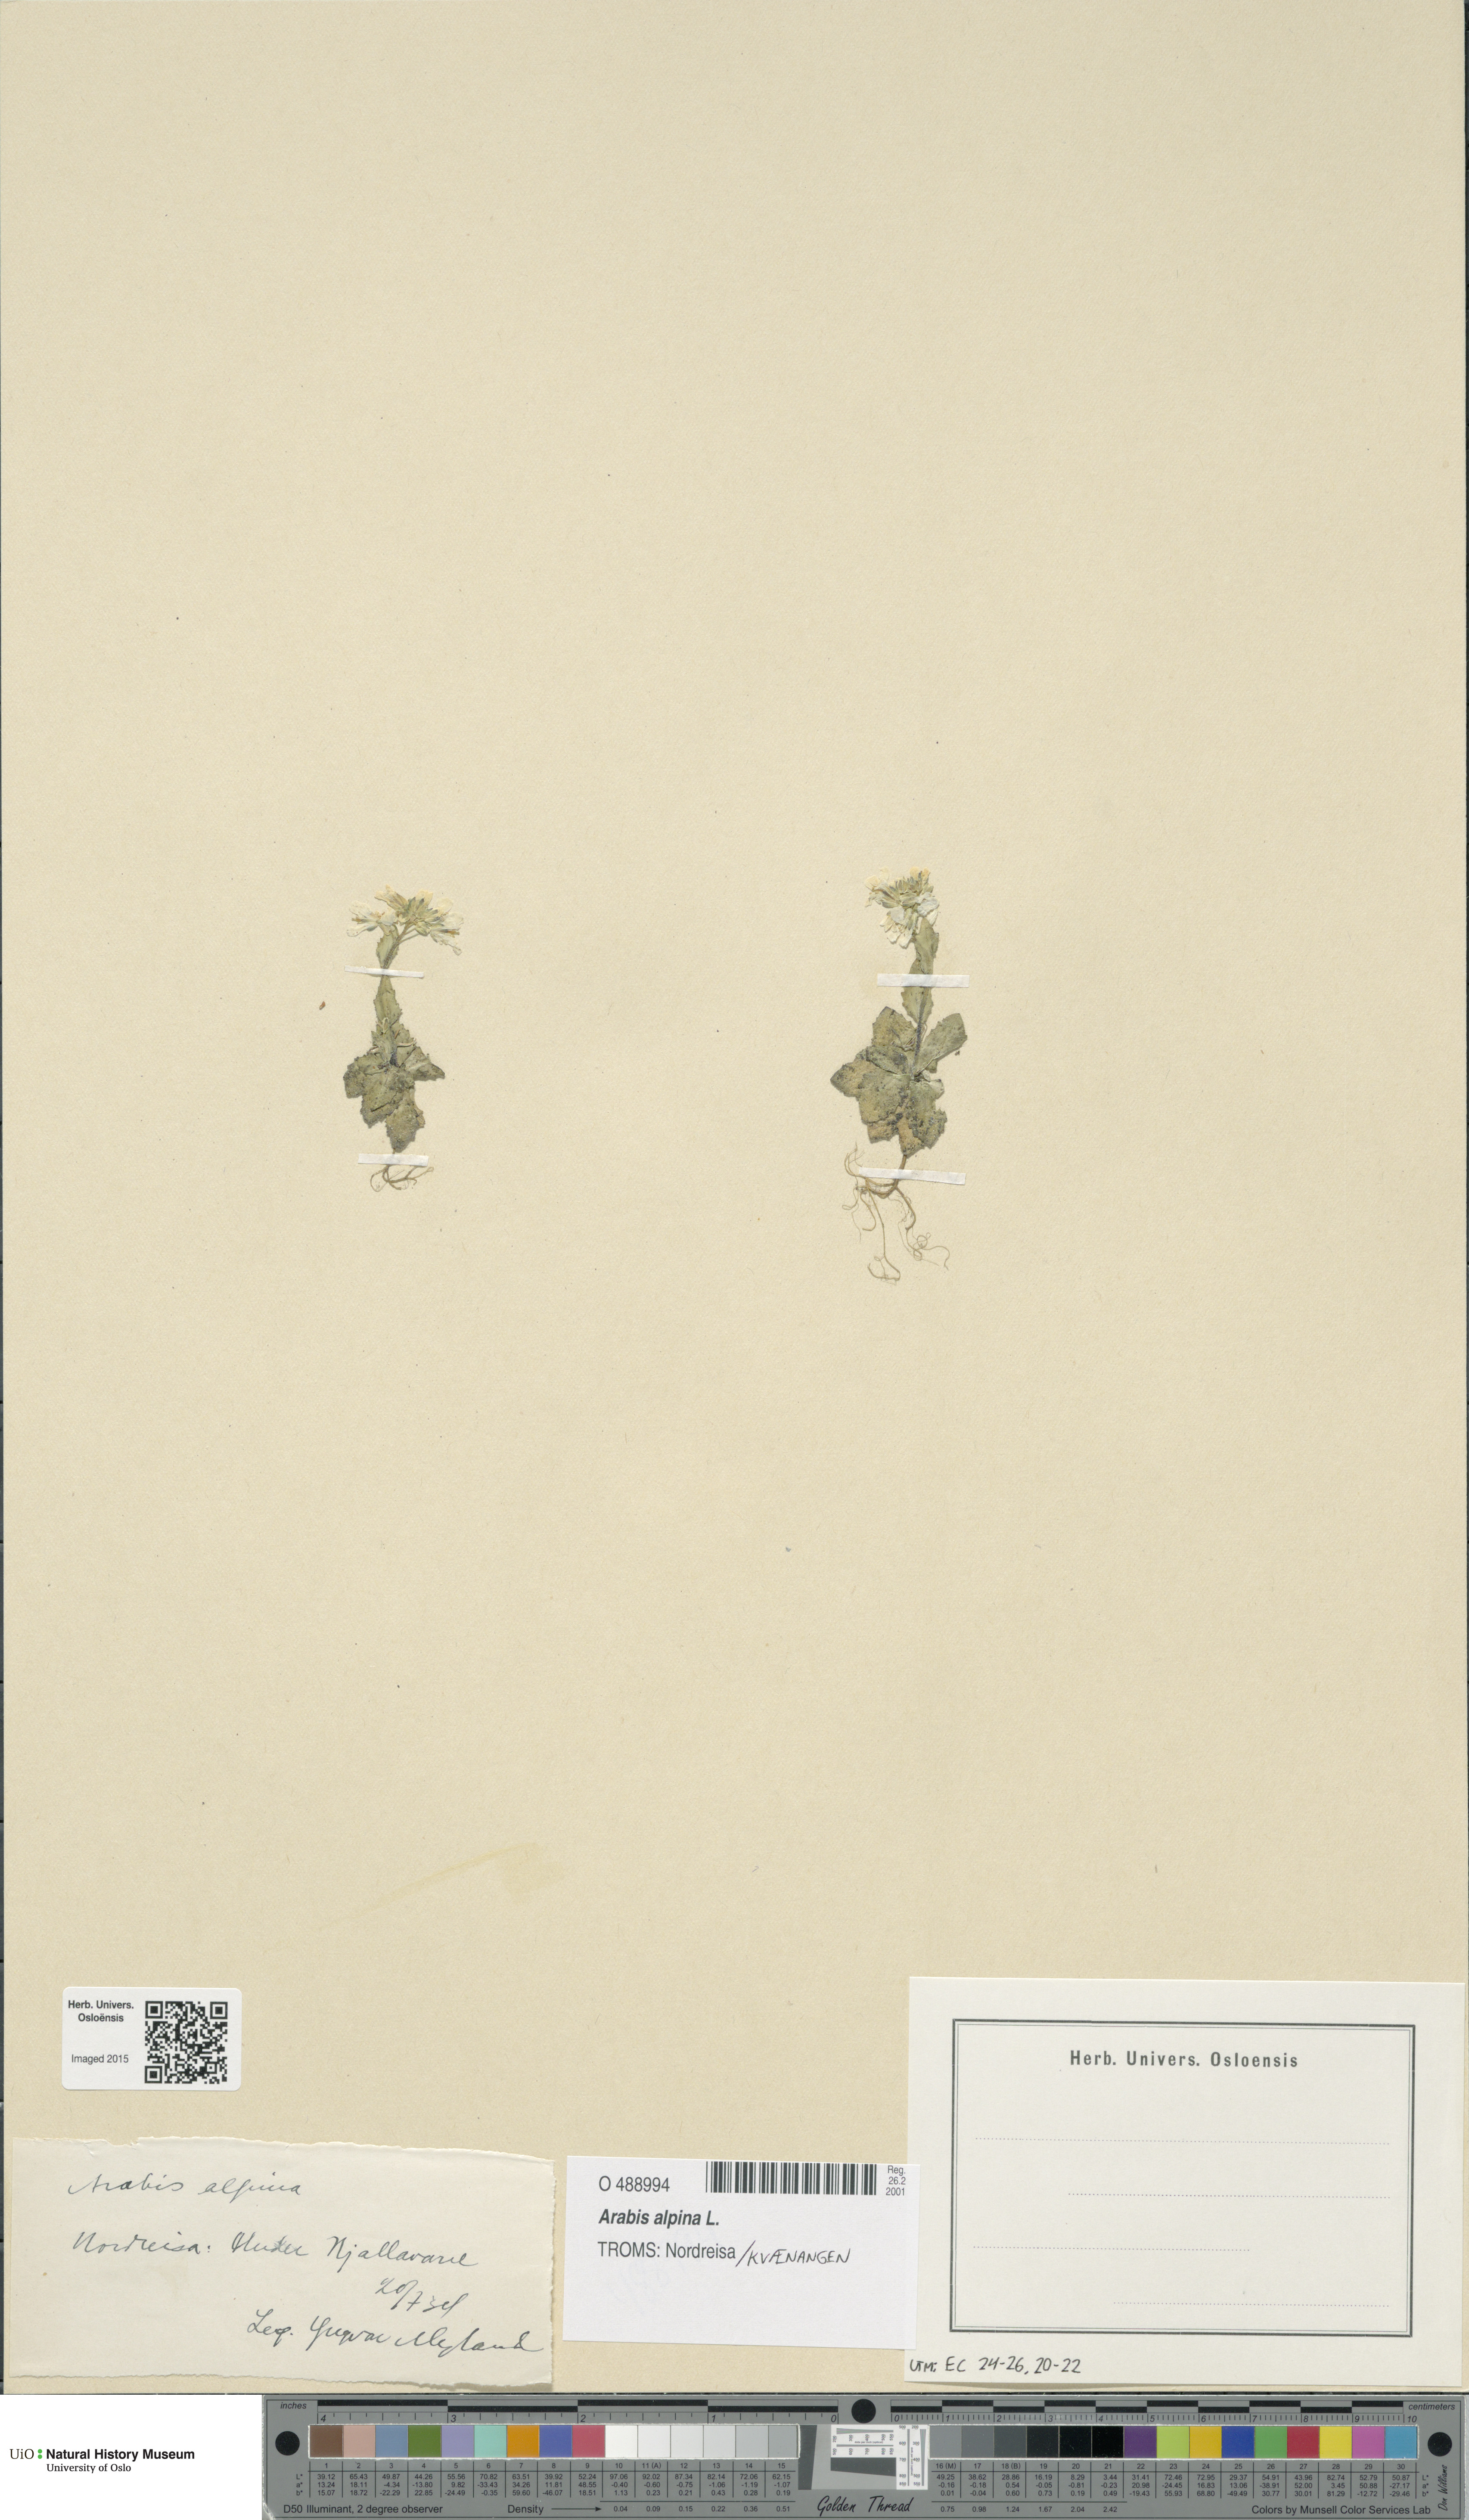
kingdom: Plantae
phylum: Tracheophyta
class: Magnoliopsida
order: Brassicales
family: Brassicaceae
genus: Arabis
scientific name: Arabis alpina
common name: Alpine rock-cress
